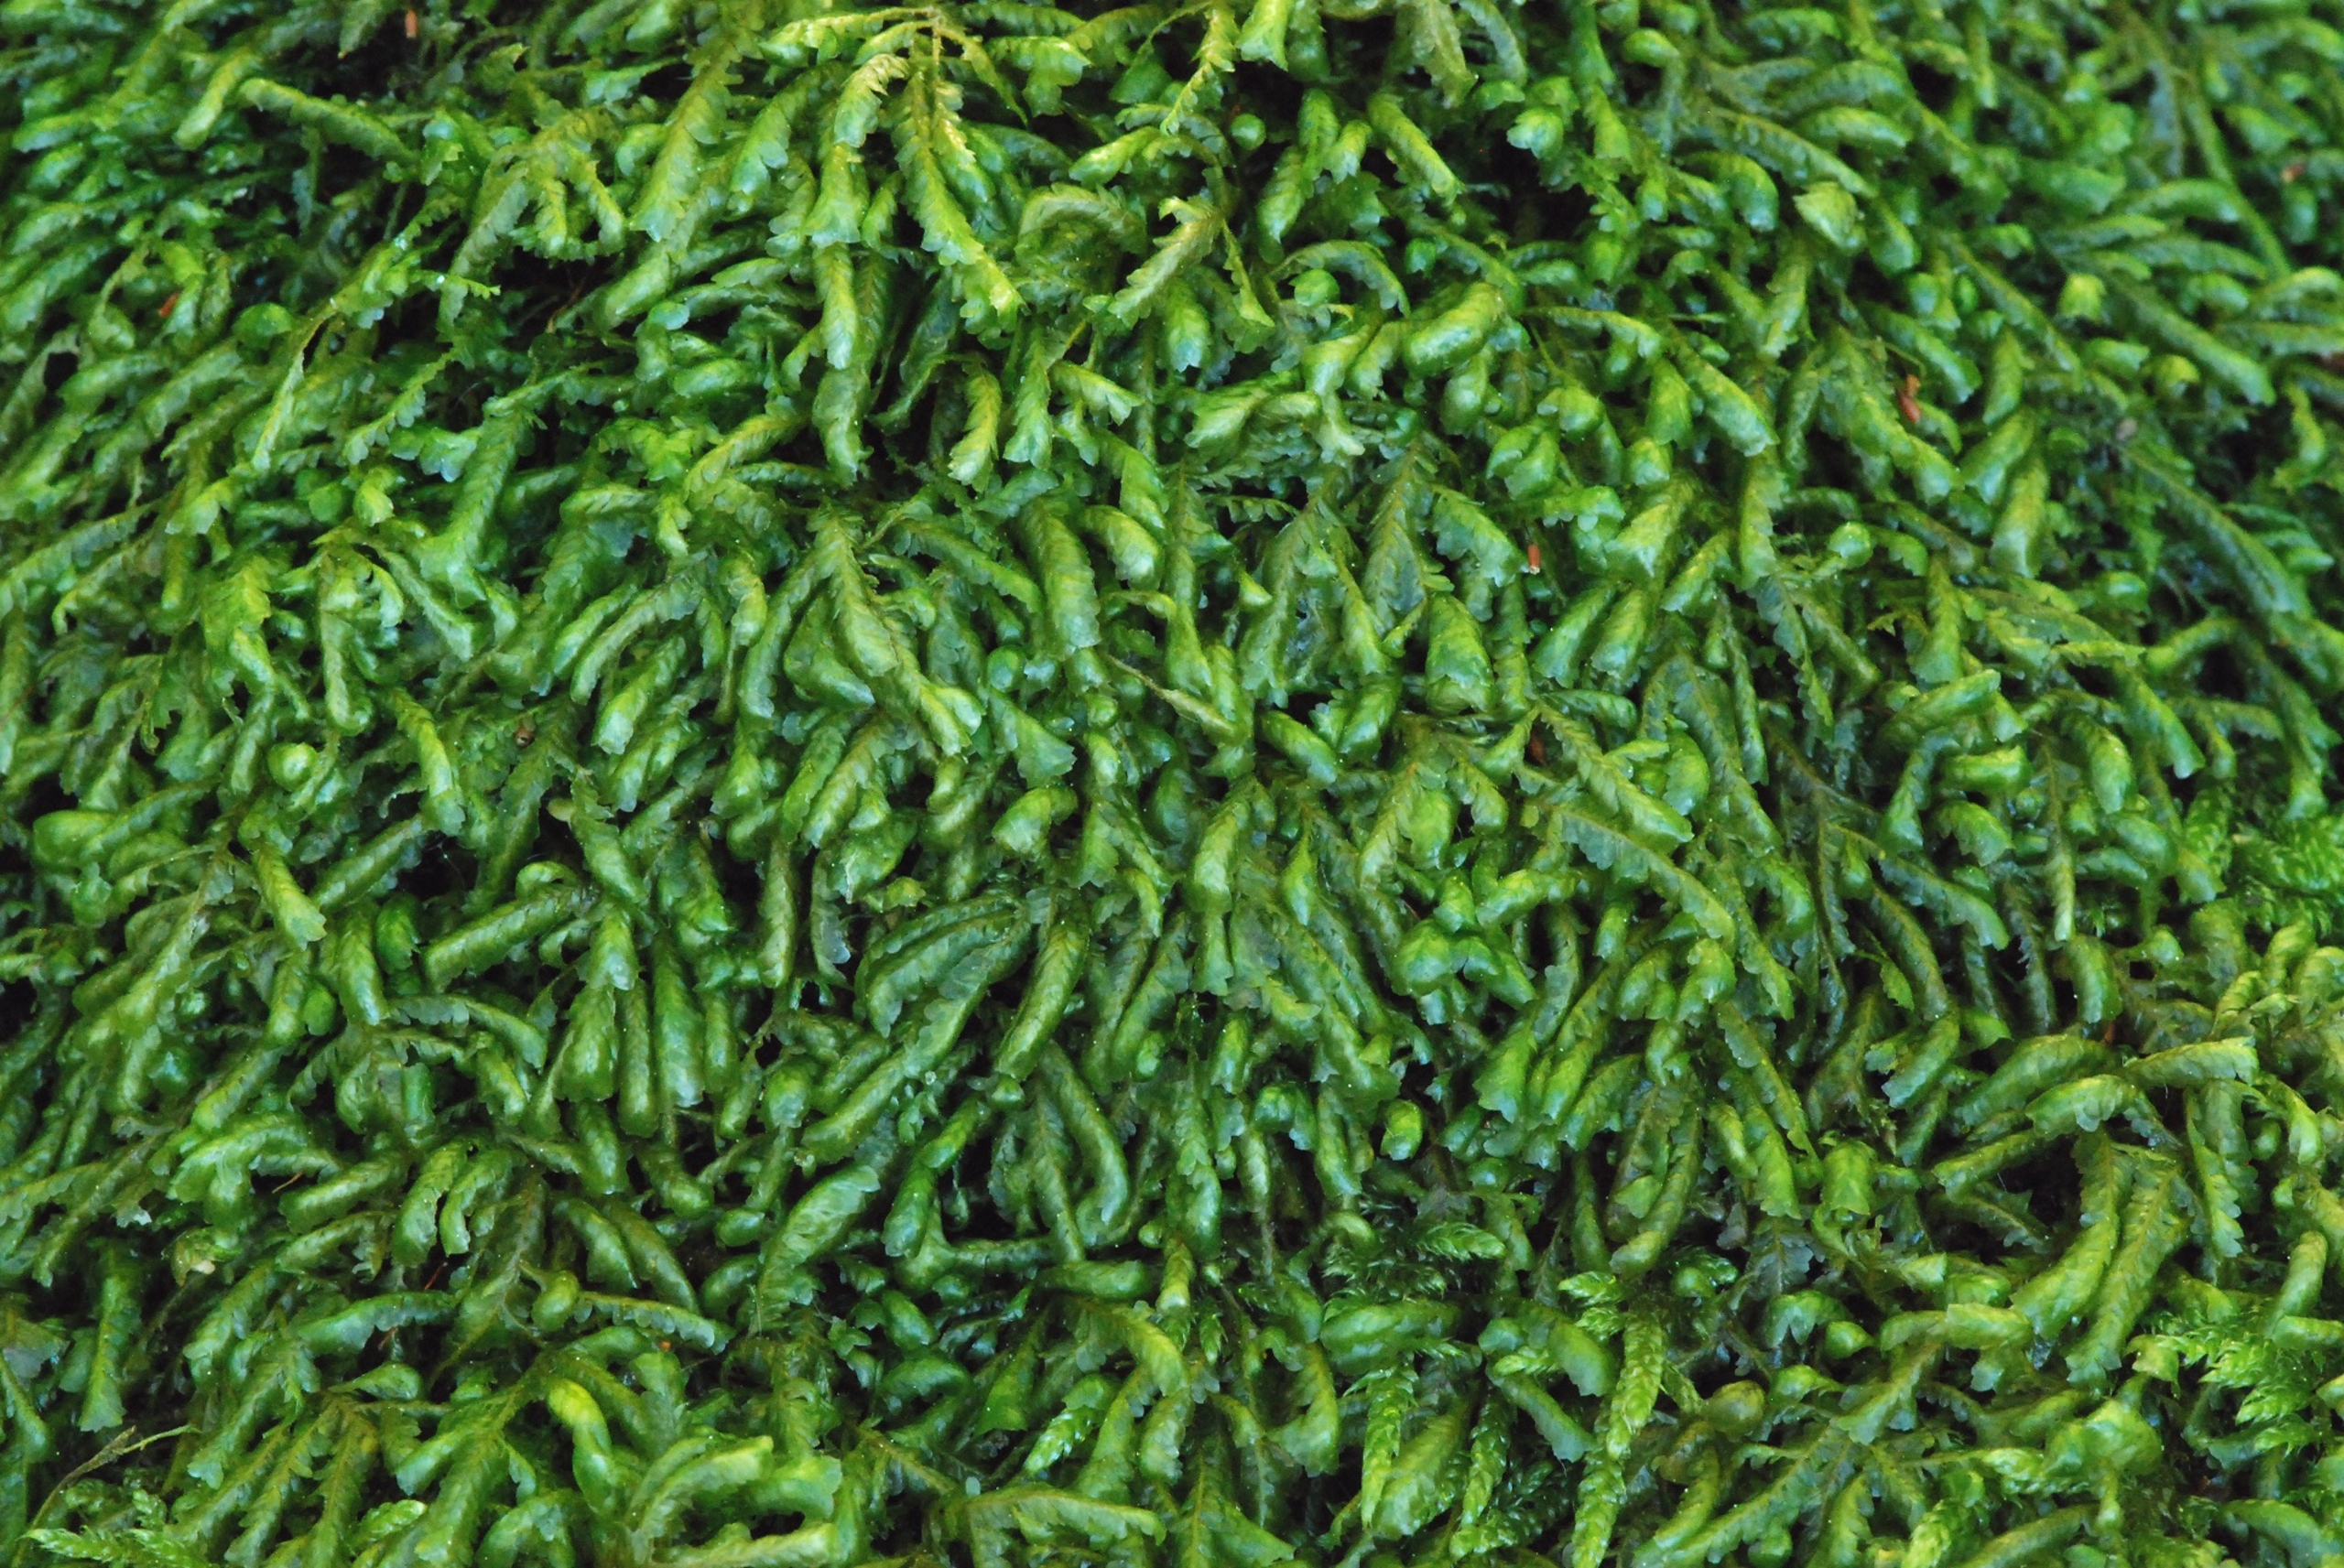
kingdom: Plantae
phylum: Bryophyta
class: Bryopsida
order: Hypnales
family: Neckeraceae
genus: Homalia
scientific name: Homalia trichomanoides
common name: Skov-tungemos
